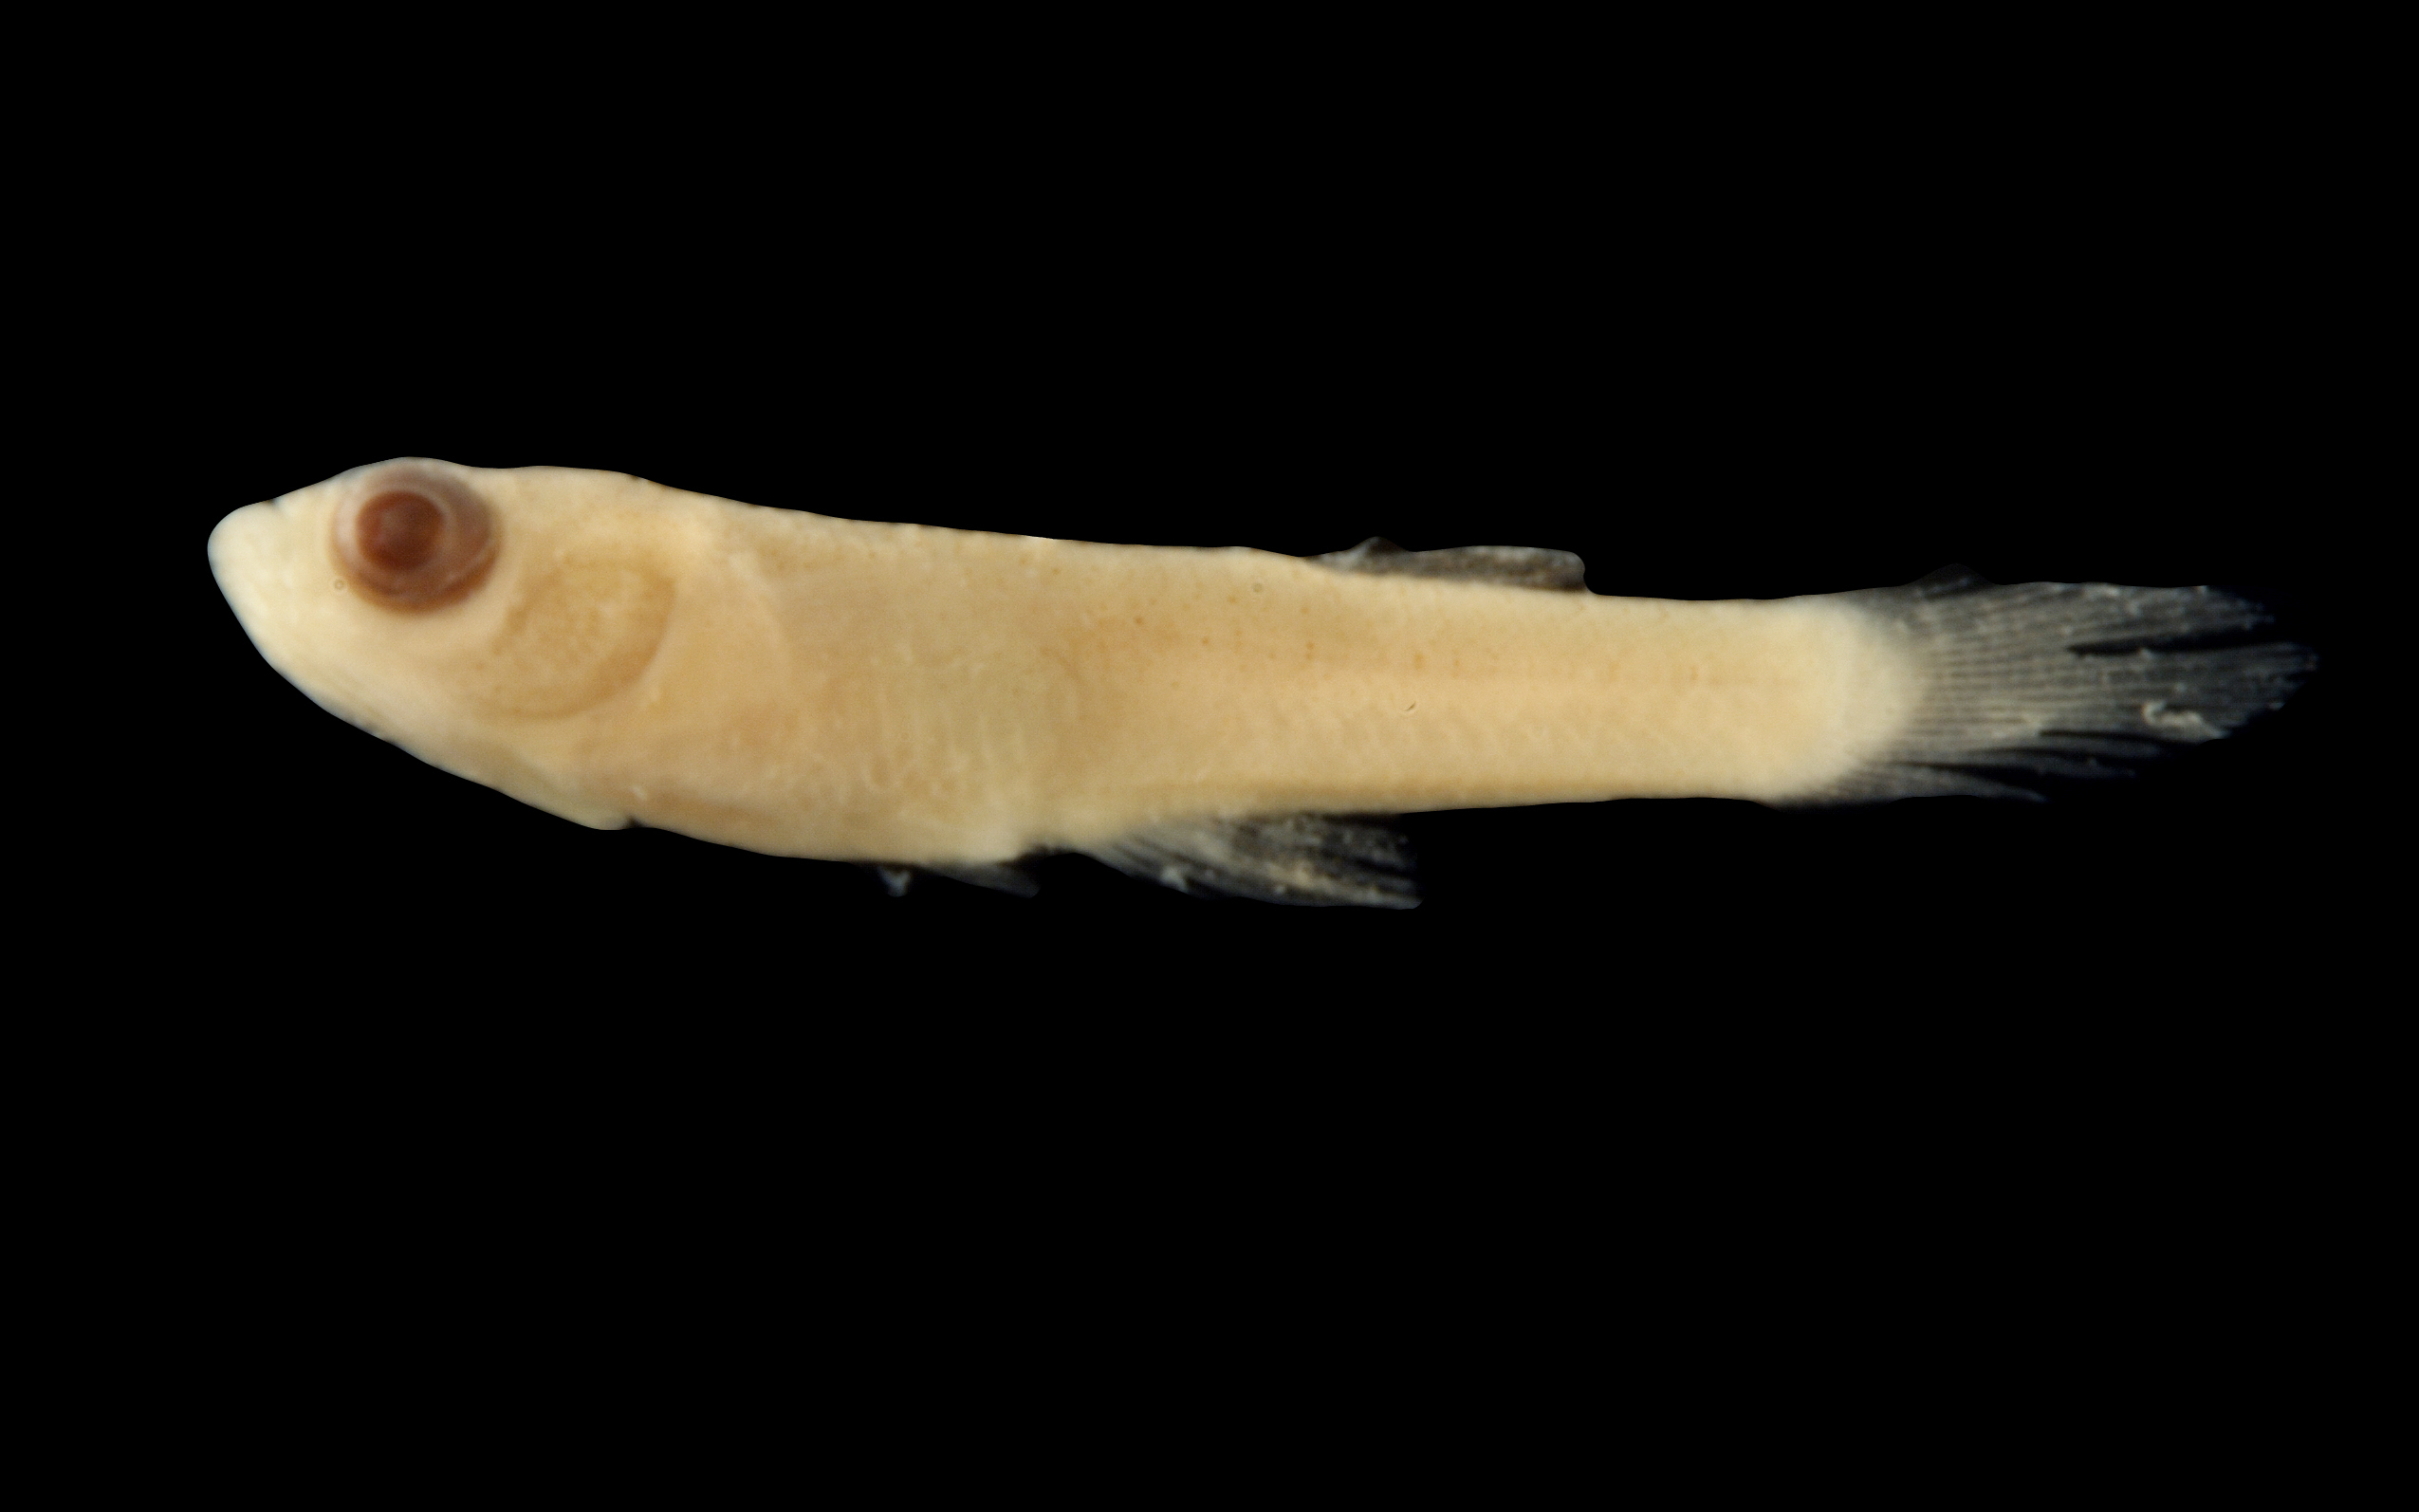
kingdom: Animalia
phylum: Chordata
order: Cyprinodontiformes
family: Poeciliidae
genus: Gambusia
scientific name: Gambusia affinis
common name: Mosquitofish
